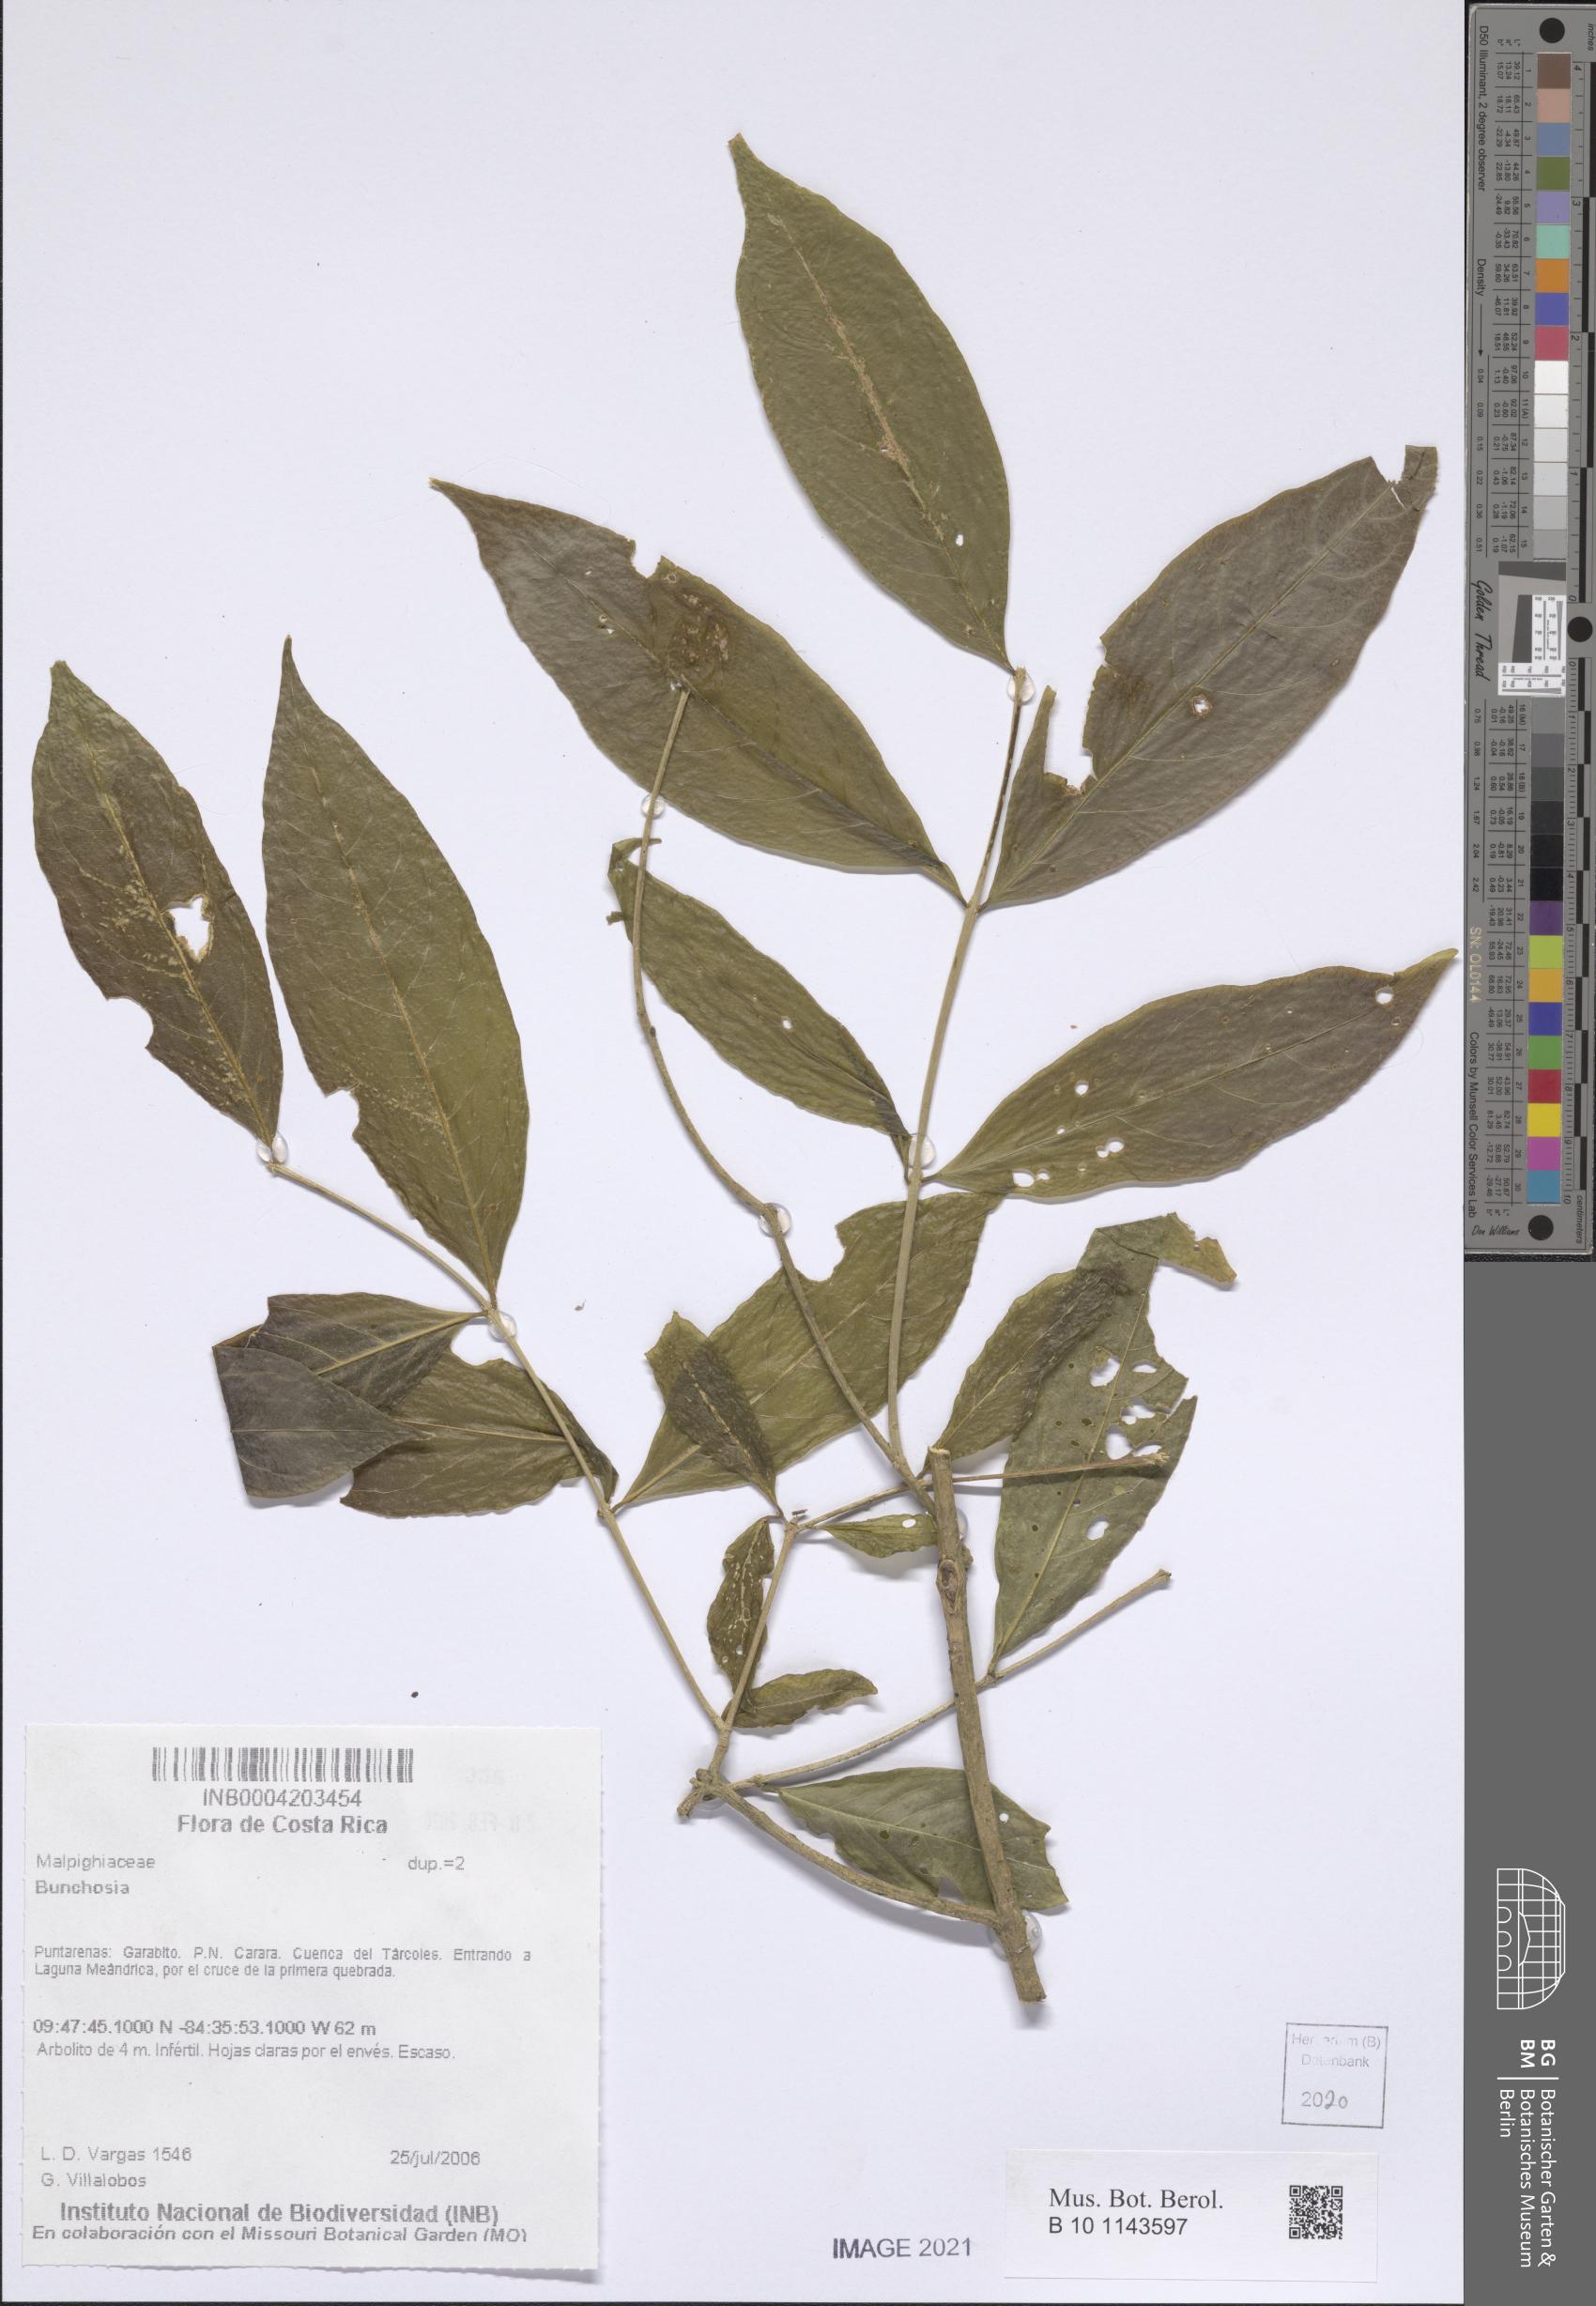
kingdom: Plantae
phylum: Tracheophyta
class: Magnoliopsida
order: Malpighiales
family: Malpighiaceae
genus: Bunchosia
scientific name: Bunchosia
